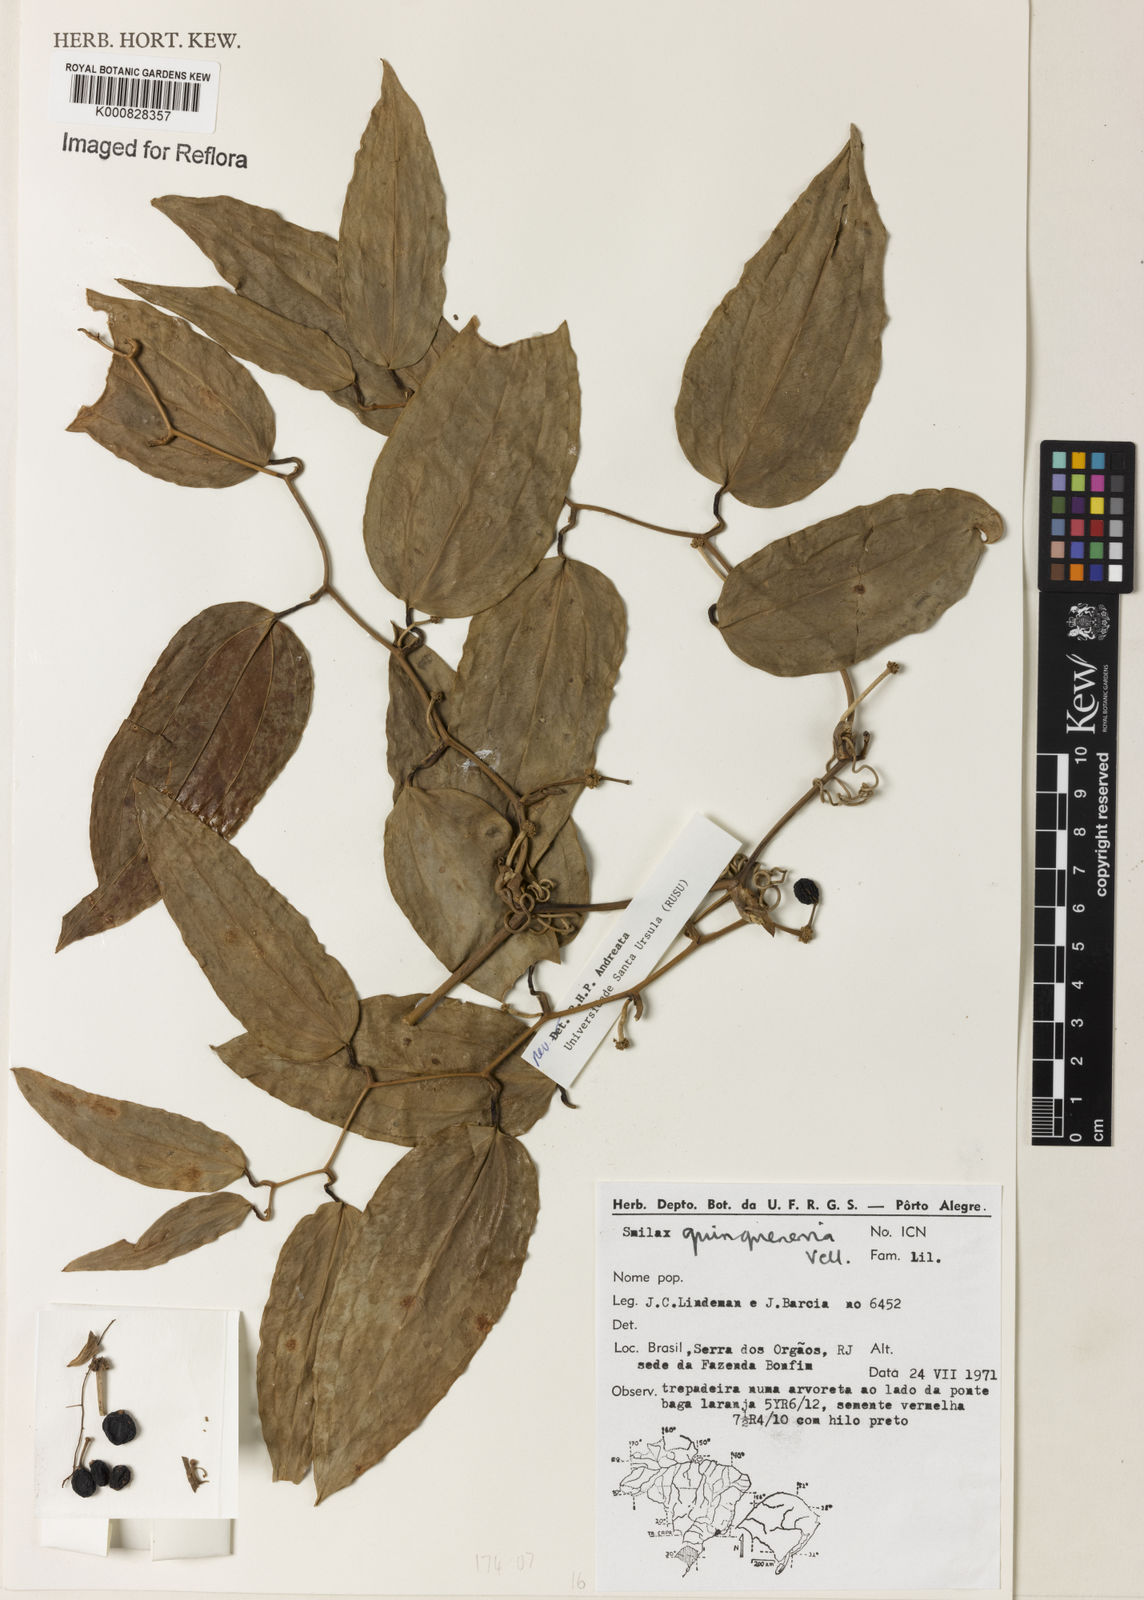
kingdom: Plantae
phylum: Tracheophyta
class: Liliopsida
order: Liliales
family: Smilacaceae
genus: Smilax
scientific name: Smilax quinquenervia
